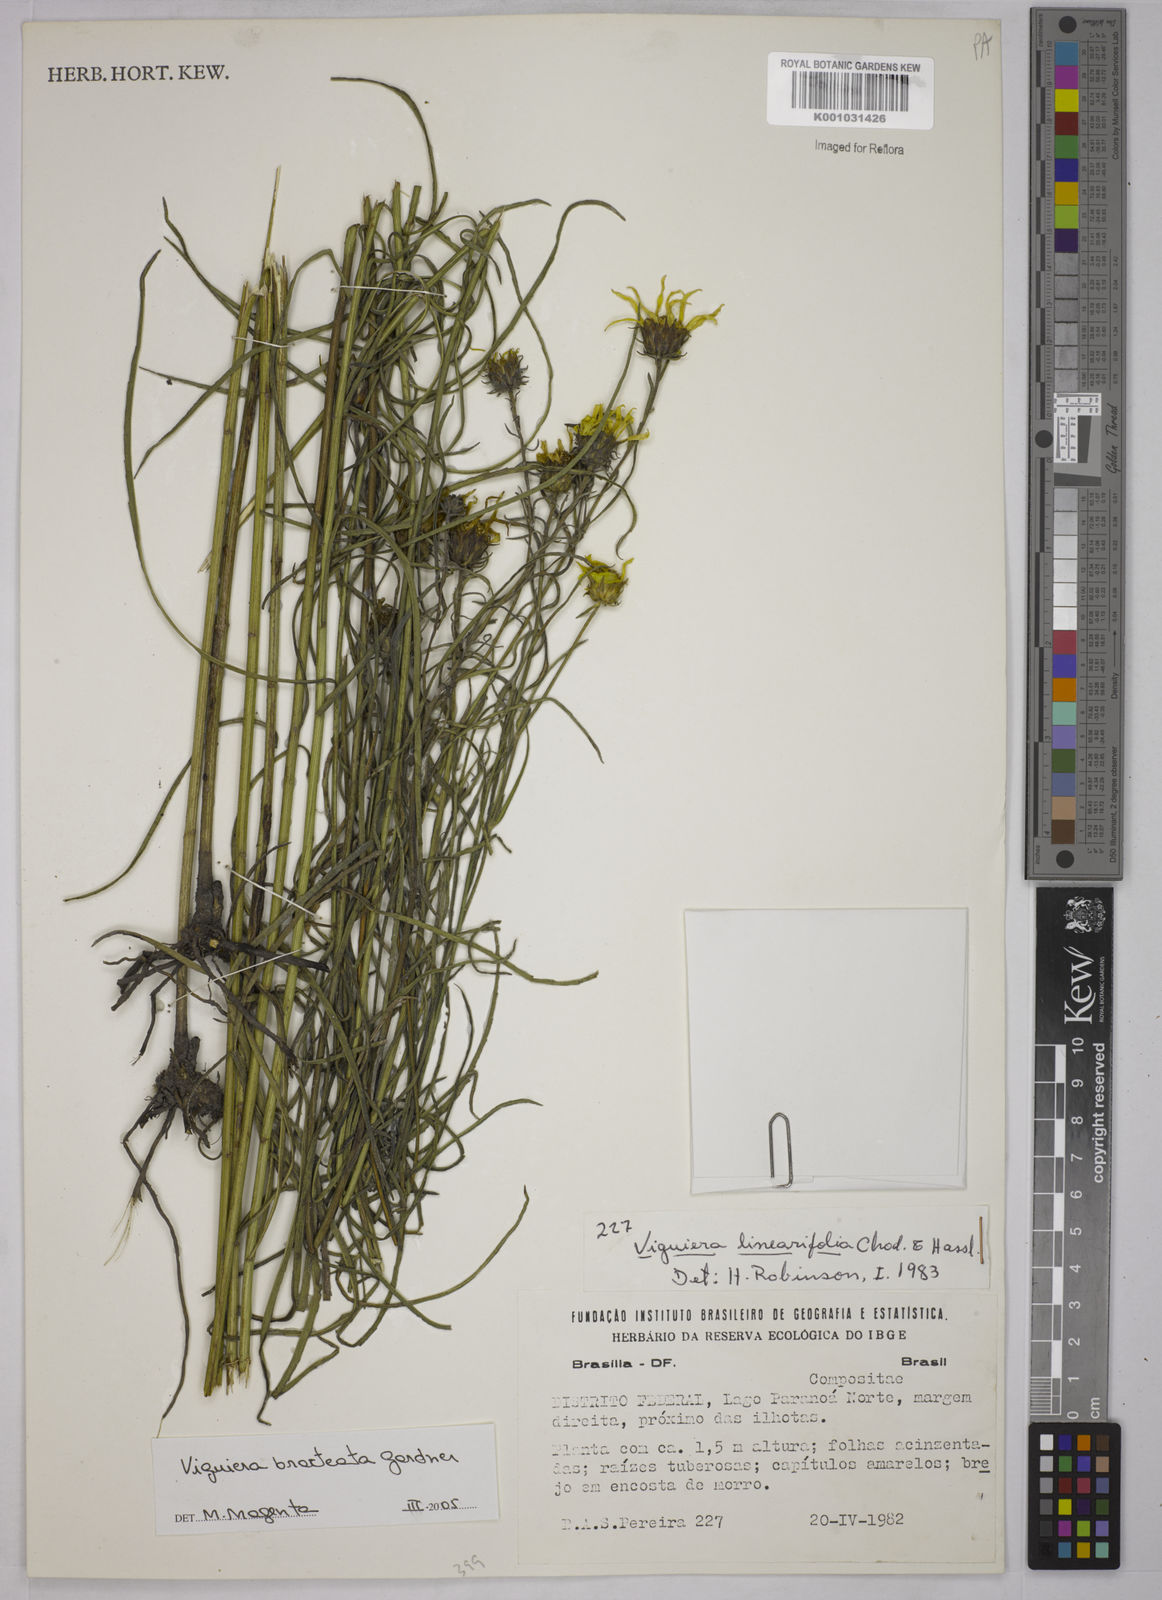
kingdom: Plantae
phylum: Tracheophyta
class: Magnoliopsida
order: Asterales
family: Asteraceae
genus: Aldama
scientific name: Aldama bracteata
